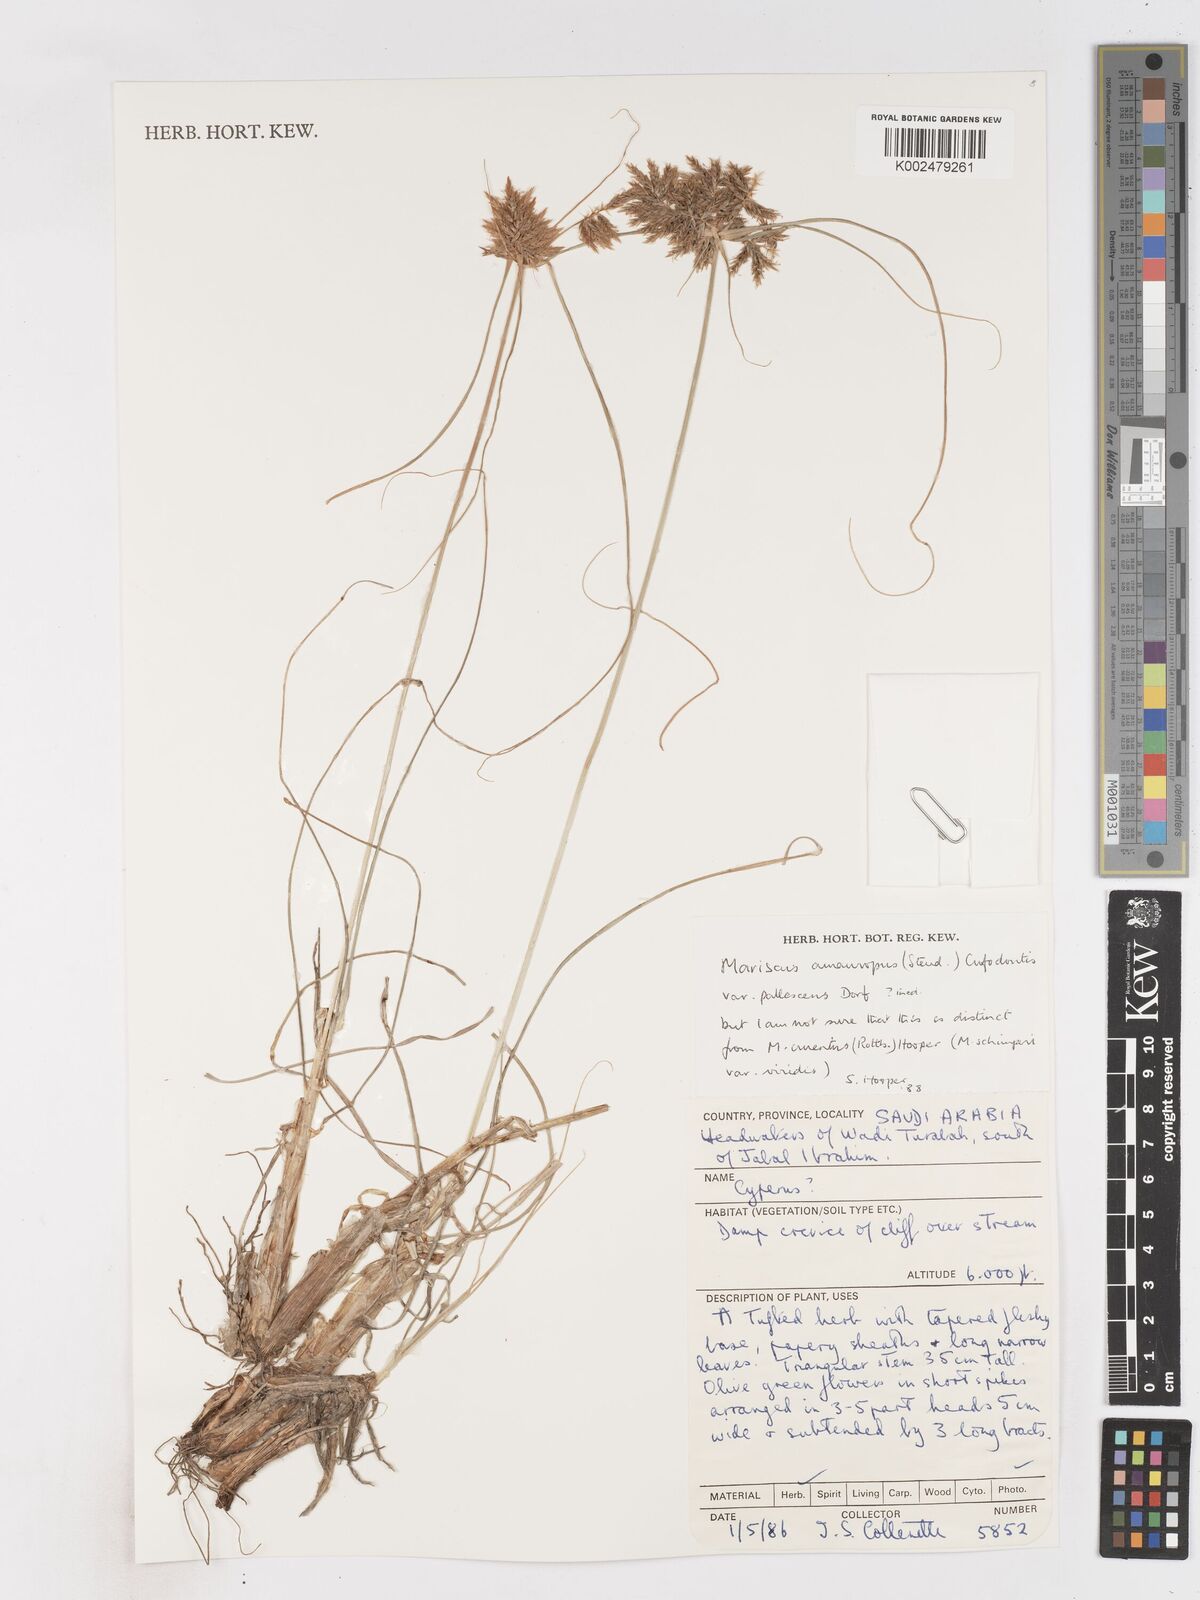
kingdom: Plantae
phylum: Tracheophyta
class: Liliopsida
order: Poales
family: Cyperaceae
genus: Cyperus
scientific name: Cyperus amauropus
